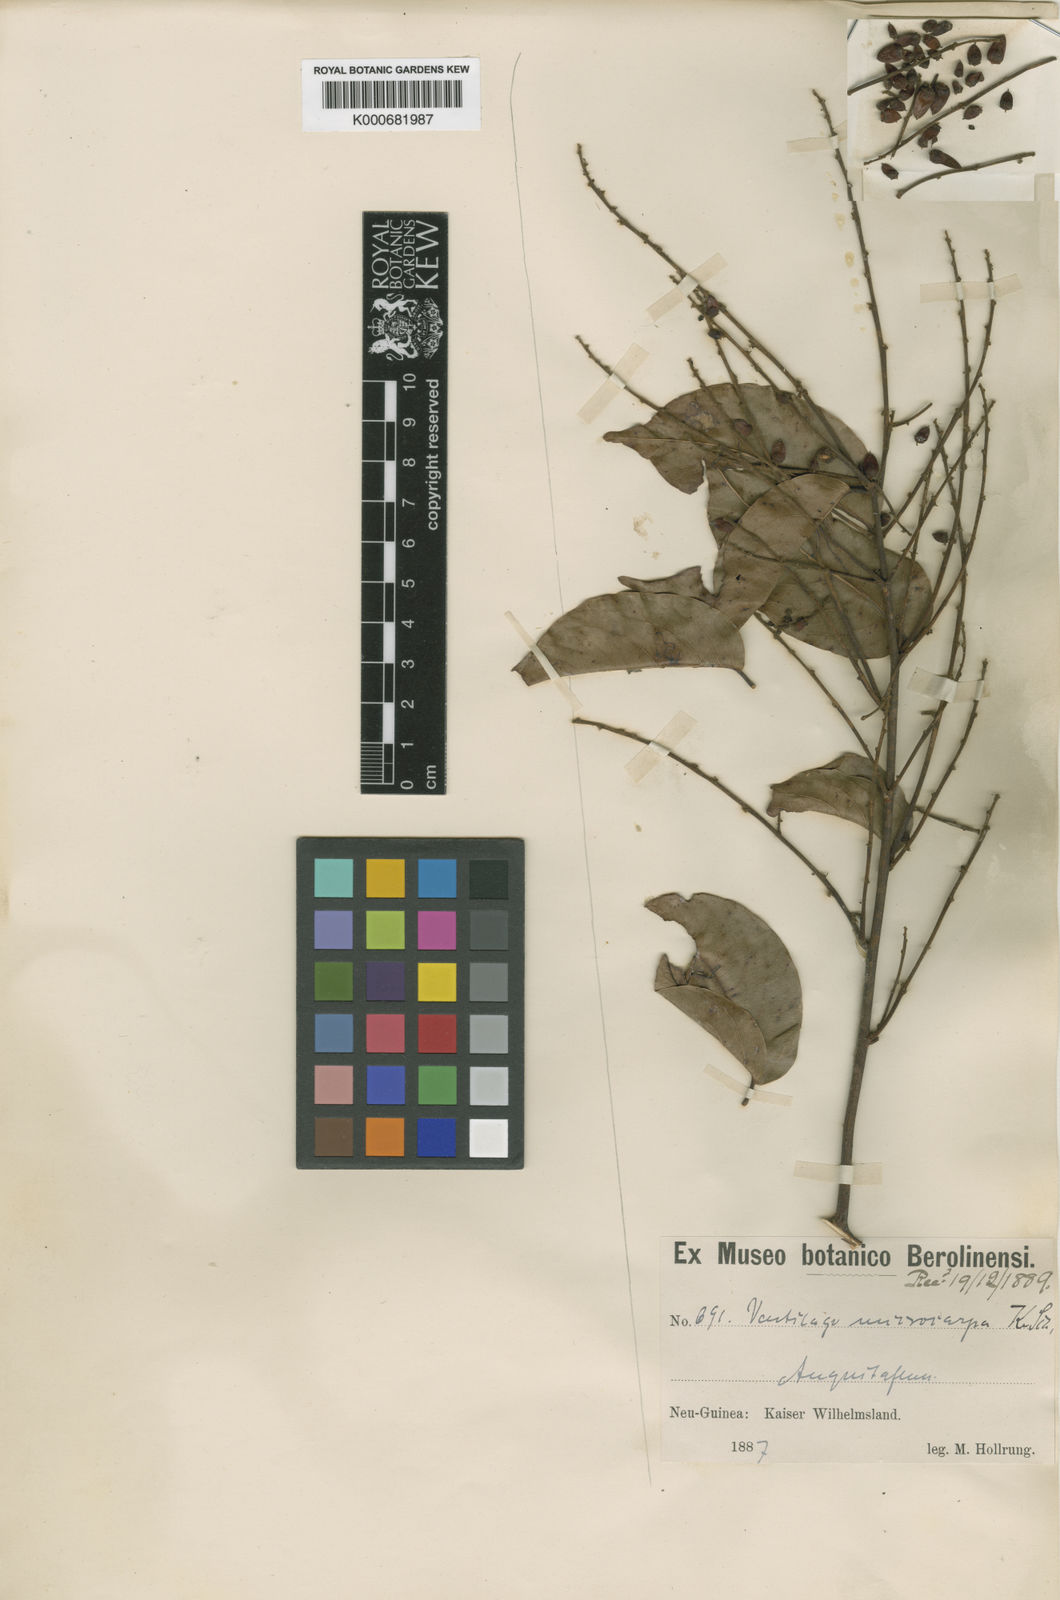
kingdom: Plantae
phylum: Tracheophyta
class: Magnoliopsida
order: Rosales
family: Rhamnaceae
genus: Ventilago
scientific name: Ventilago microcarpa
